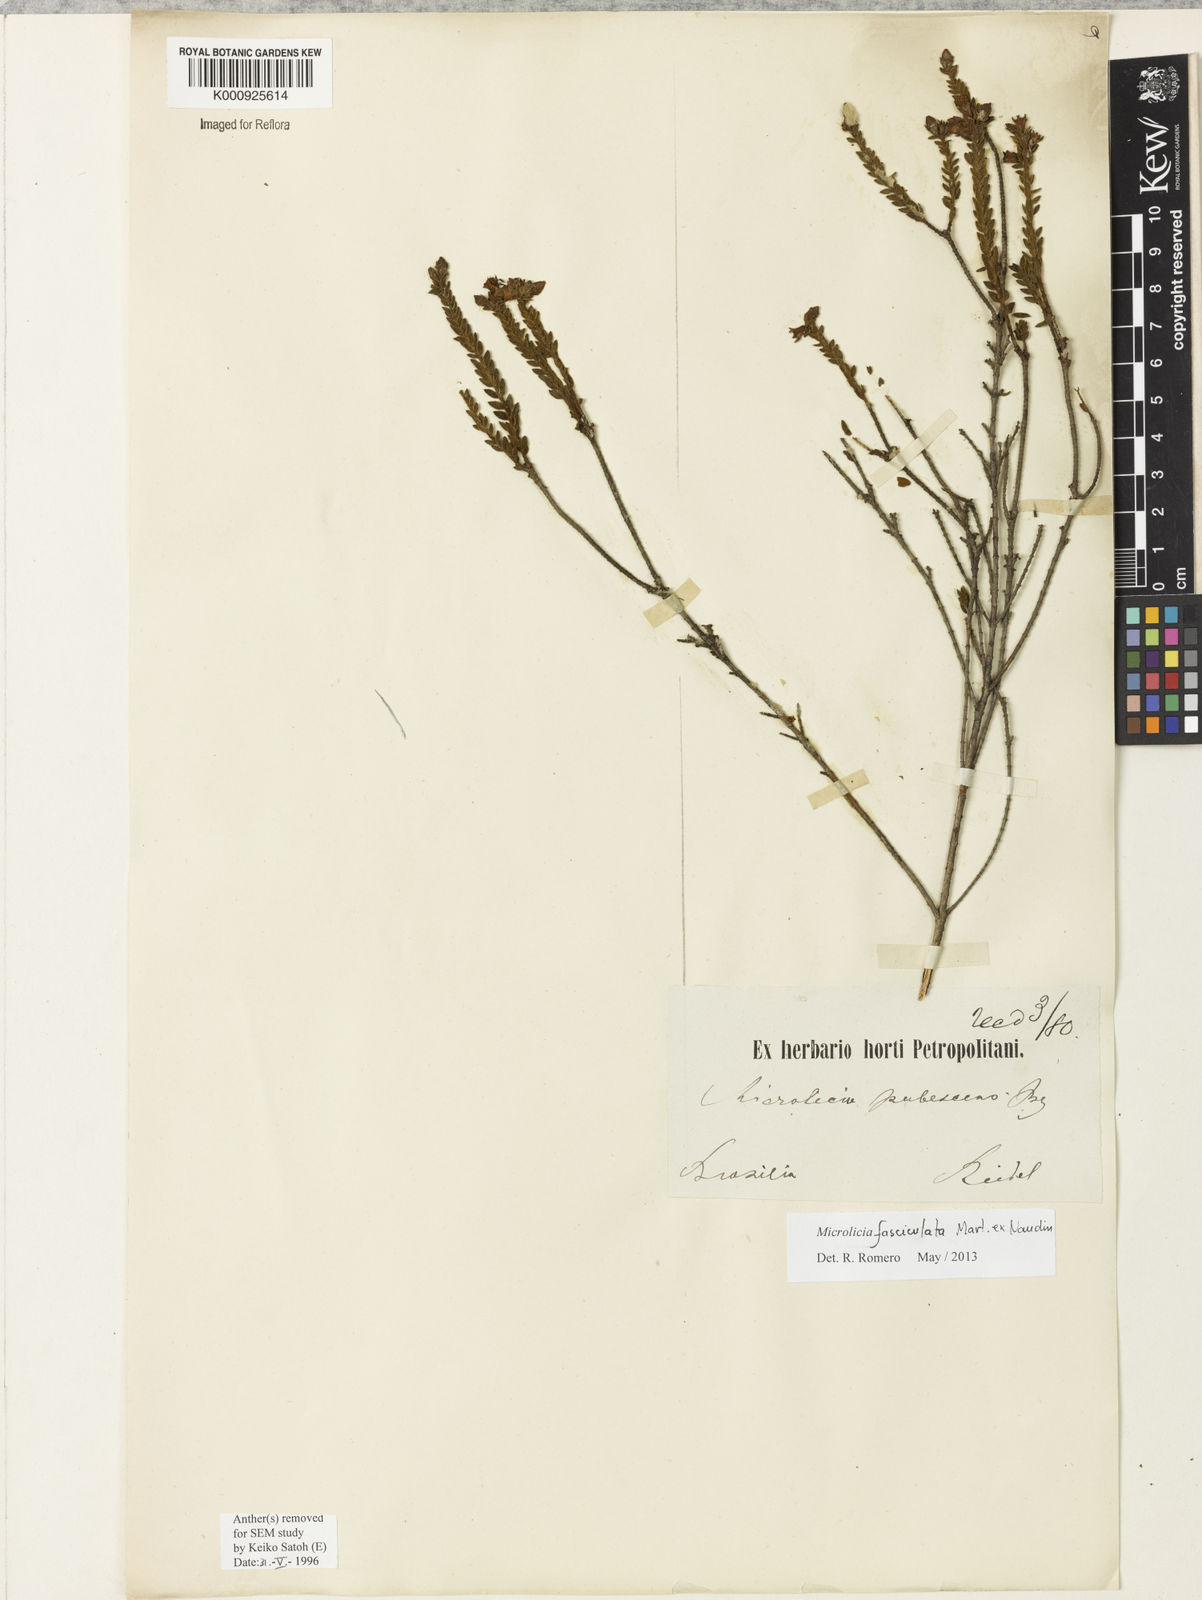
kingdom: Plantae
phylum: Tracheophyta
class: Magnoliopsida
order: Myrtales
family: Melastomataceae
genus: Microlicia
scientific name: Microlicia fasciculata
